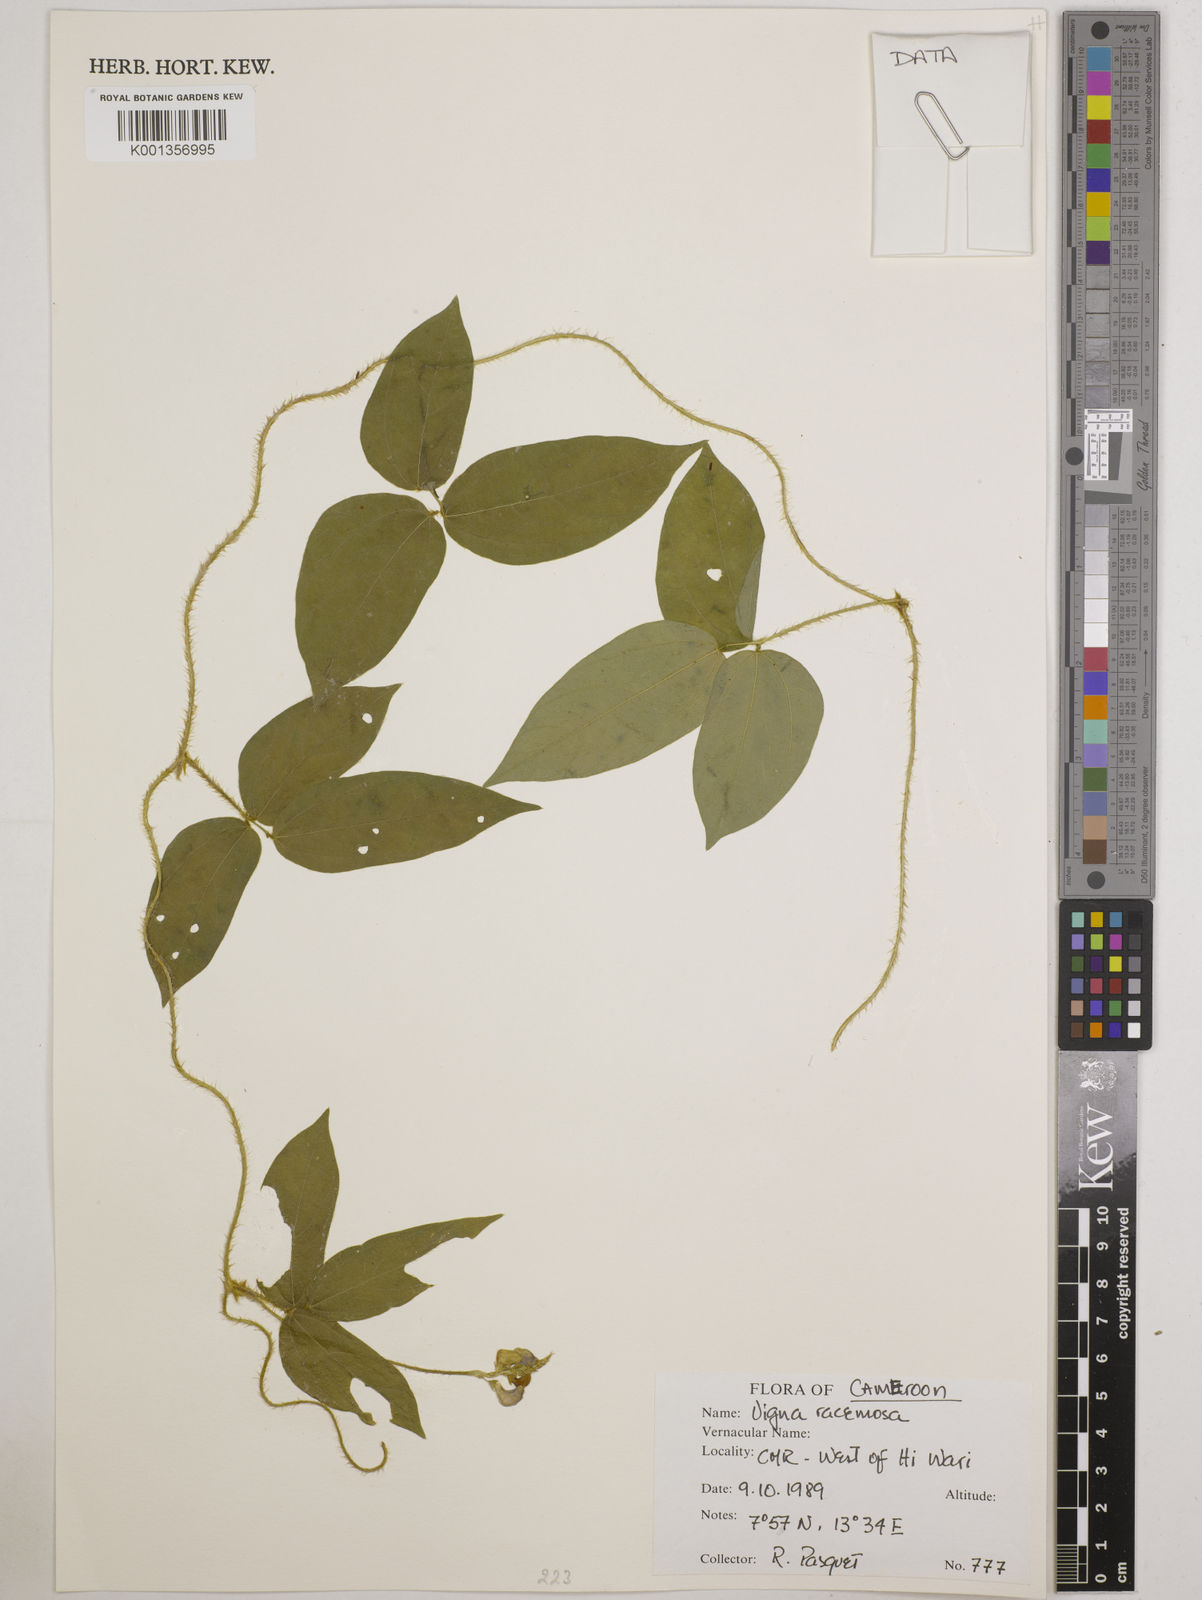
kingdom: Plantae
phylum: Tracheophyta
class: Magnoliopsida
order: Fabales
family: Fabaceae
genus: Vigna
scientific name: Vigna racemosa
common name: Beans not eaten
